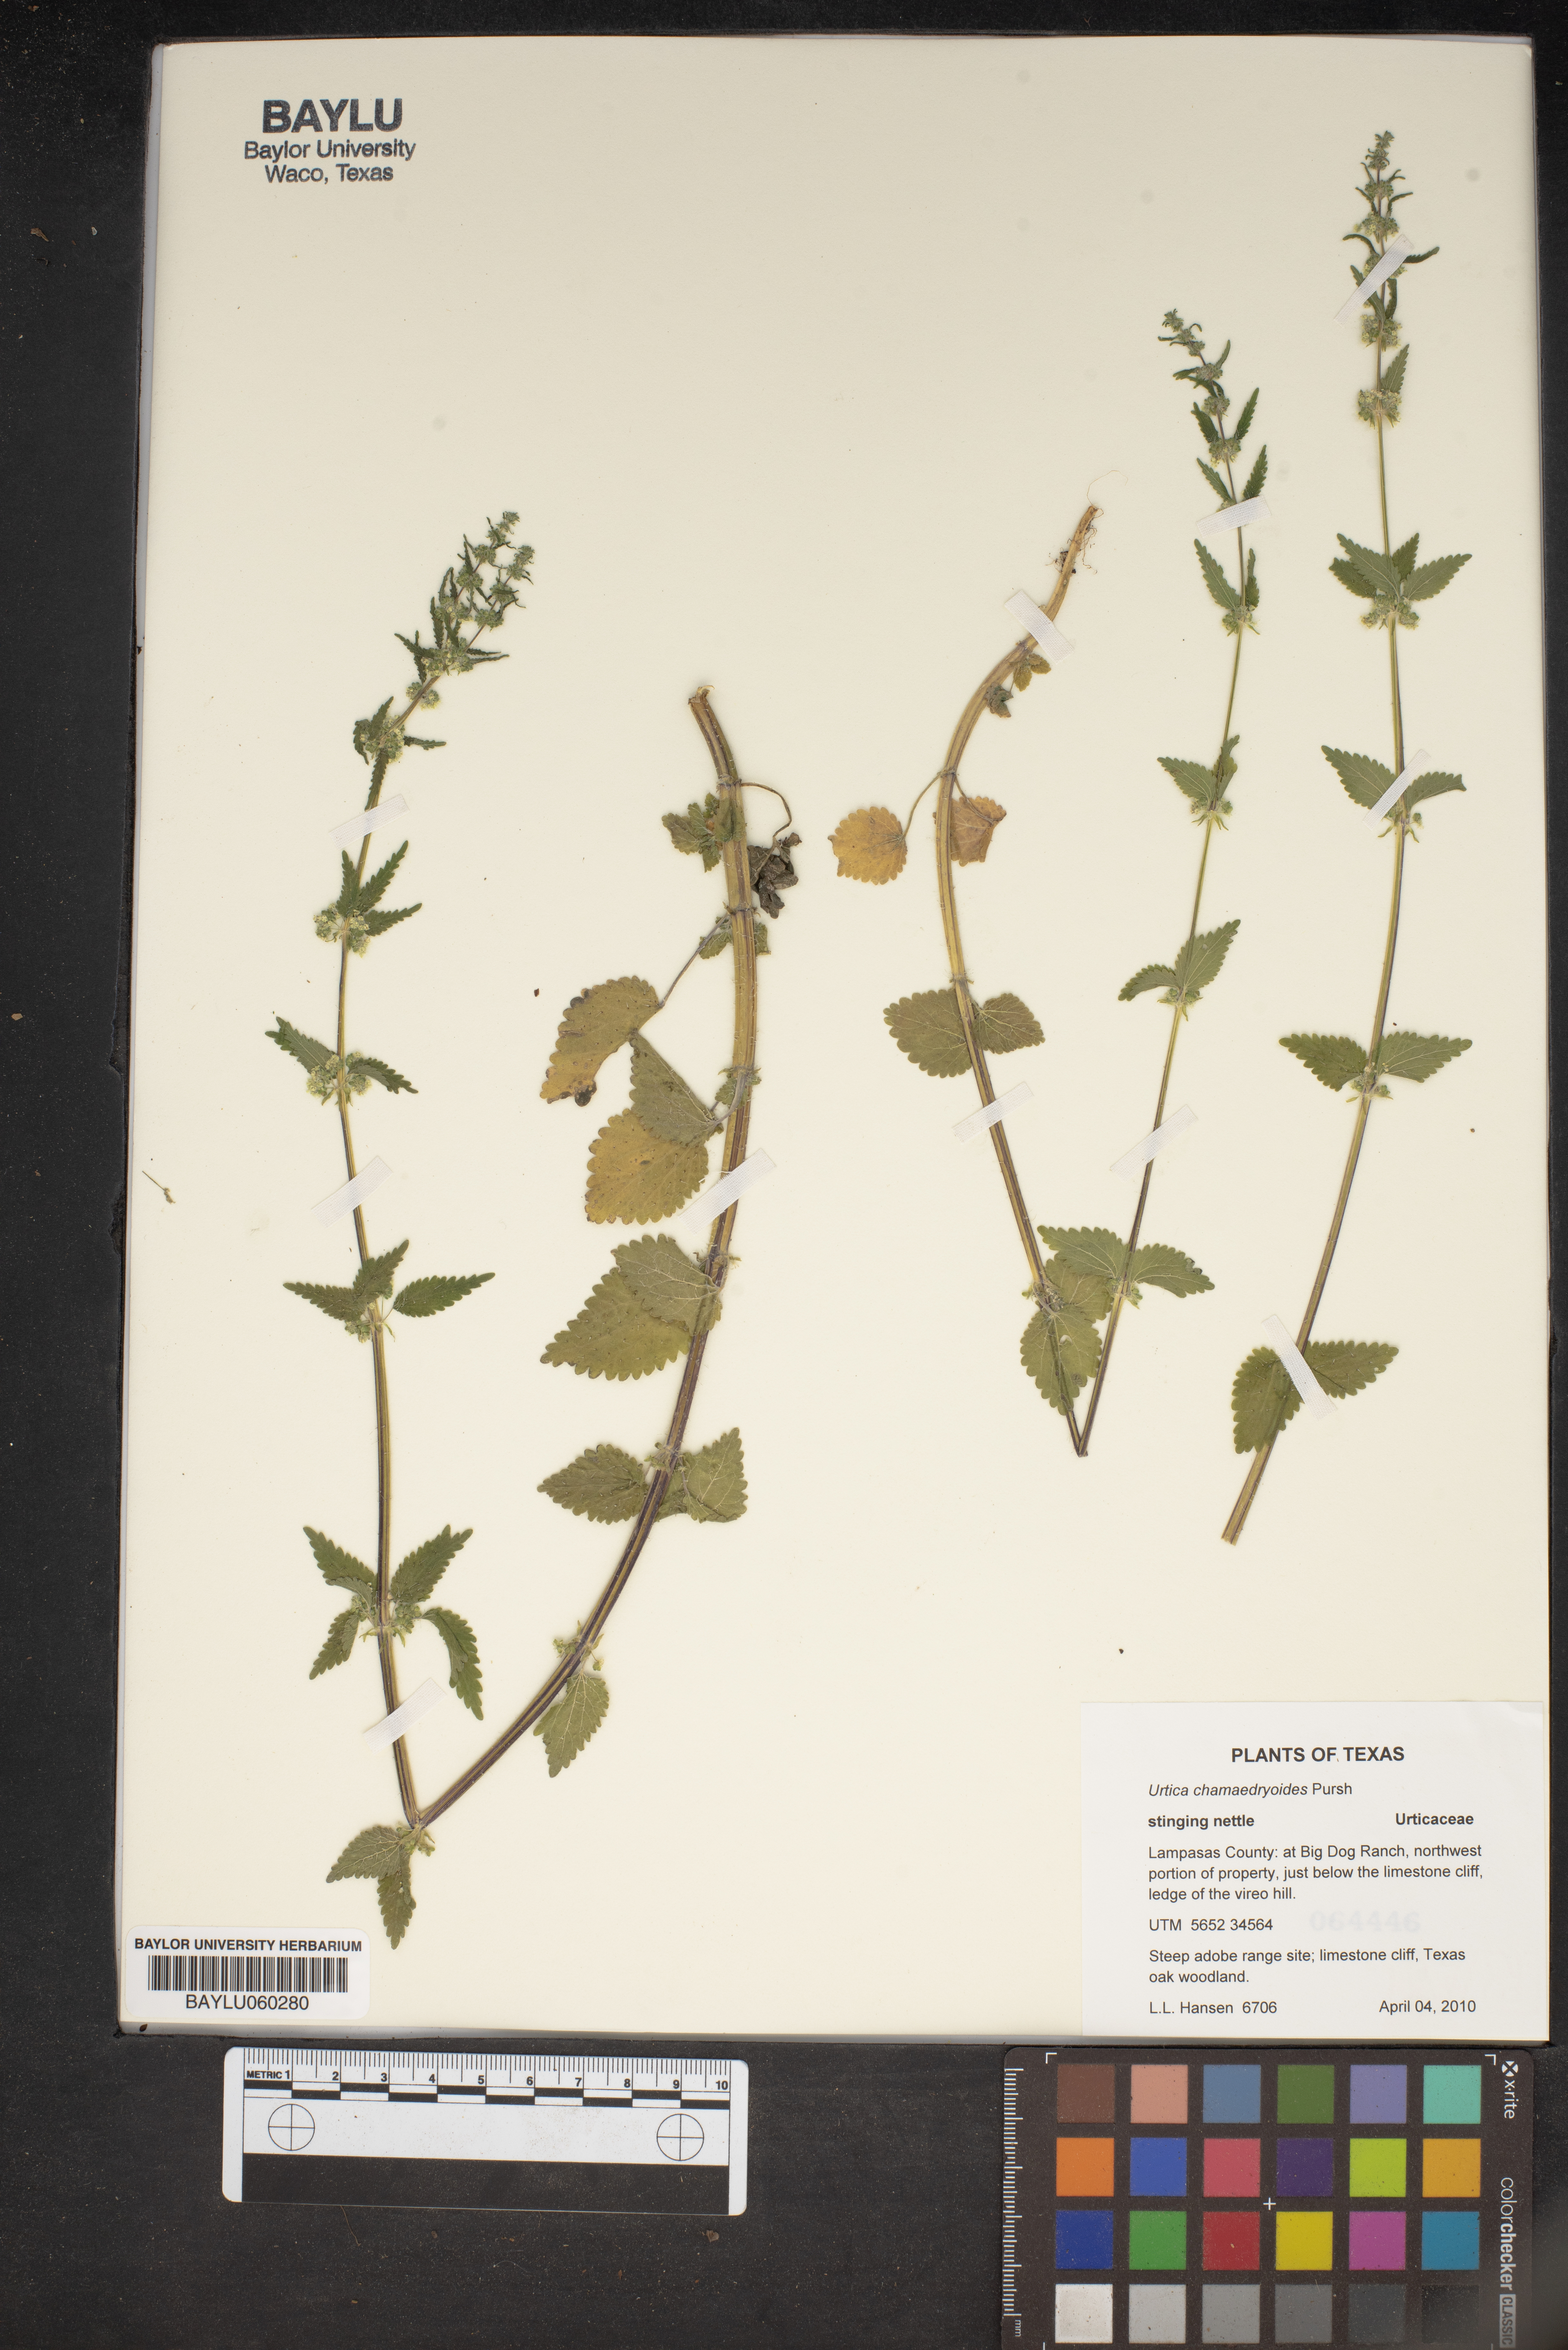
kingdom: Plantae
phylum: Tracheophyta
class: Magnoliopsida
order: Rosales
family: Urticaceae
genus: Urtica
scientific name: Urtica chamaedryoides
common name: Heart-leaf nettle
